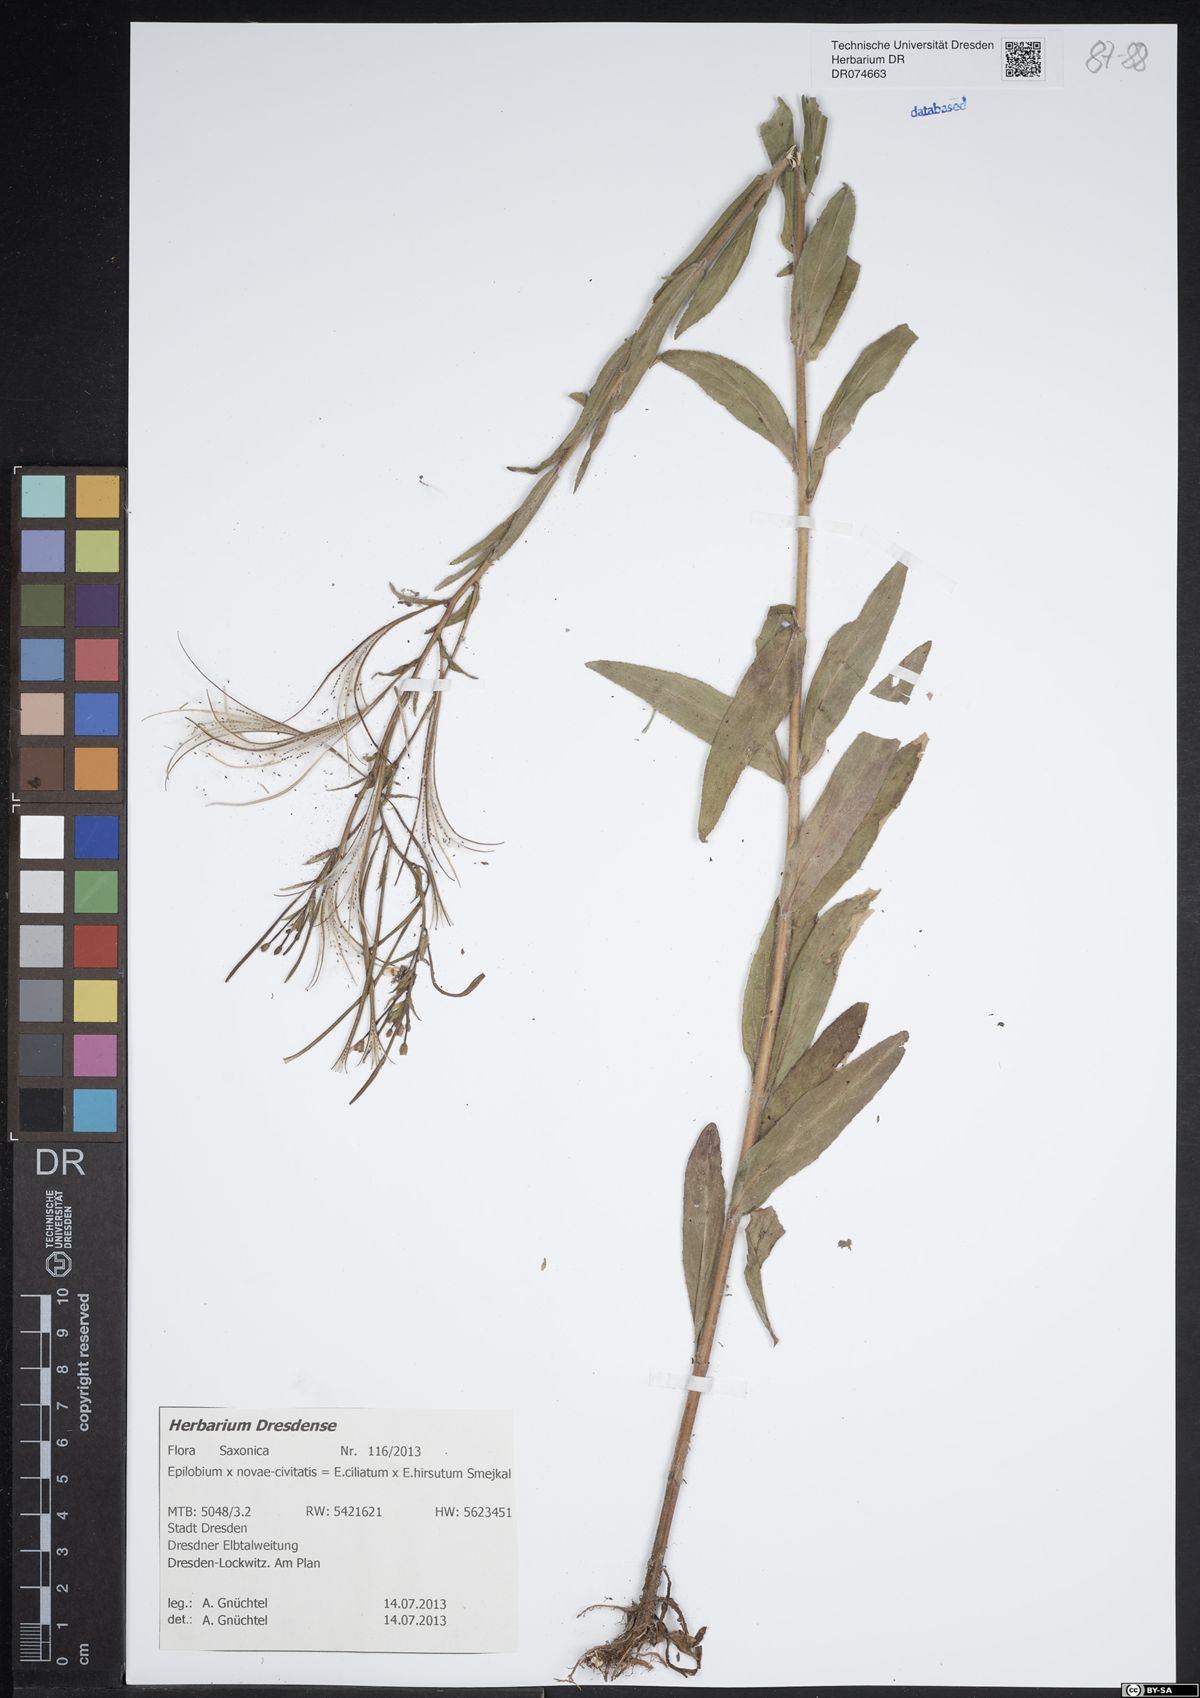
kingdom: Plantae
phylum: Tracheophyta
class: Magnoliopsida
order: Myrtales
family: Onagraceae
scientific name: Onagraceae
